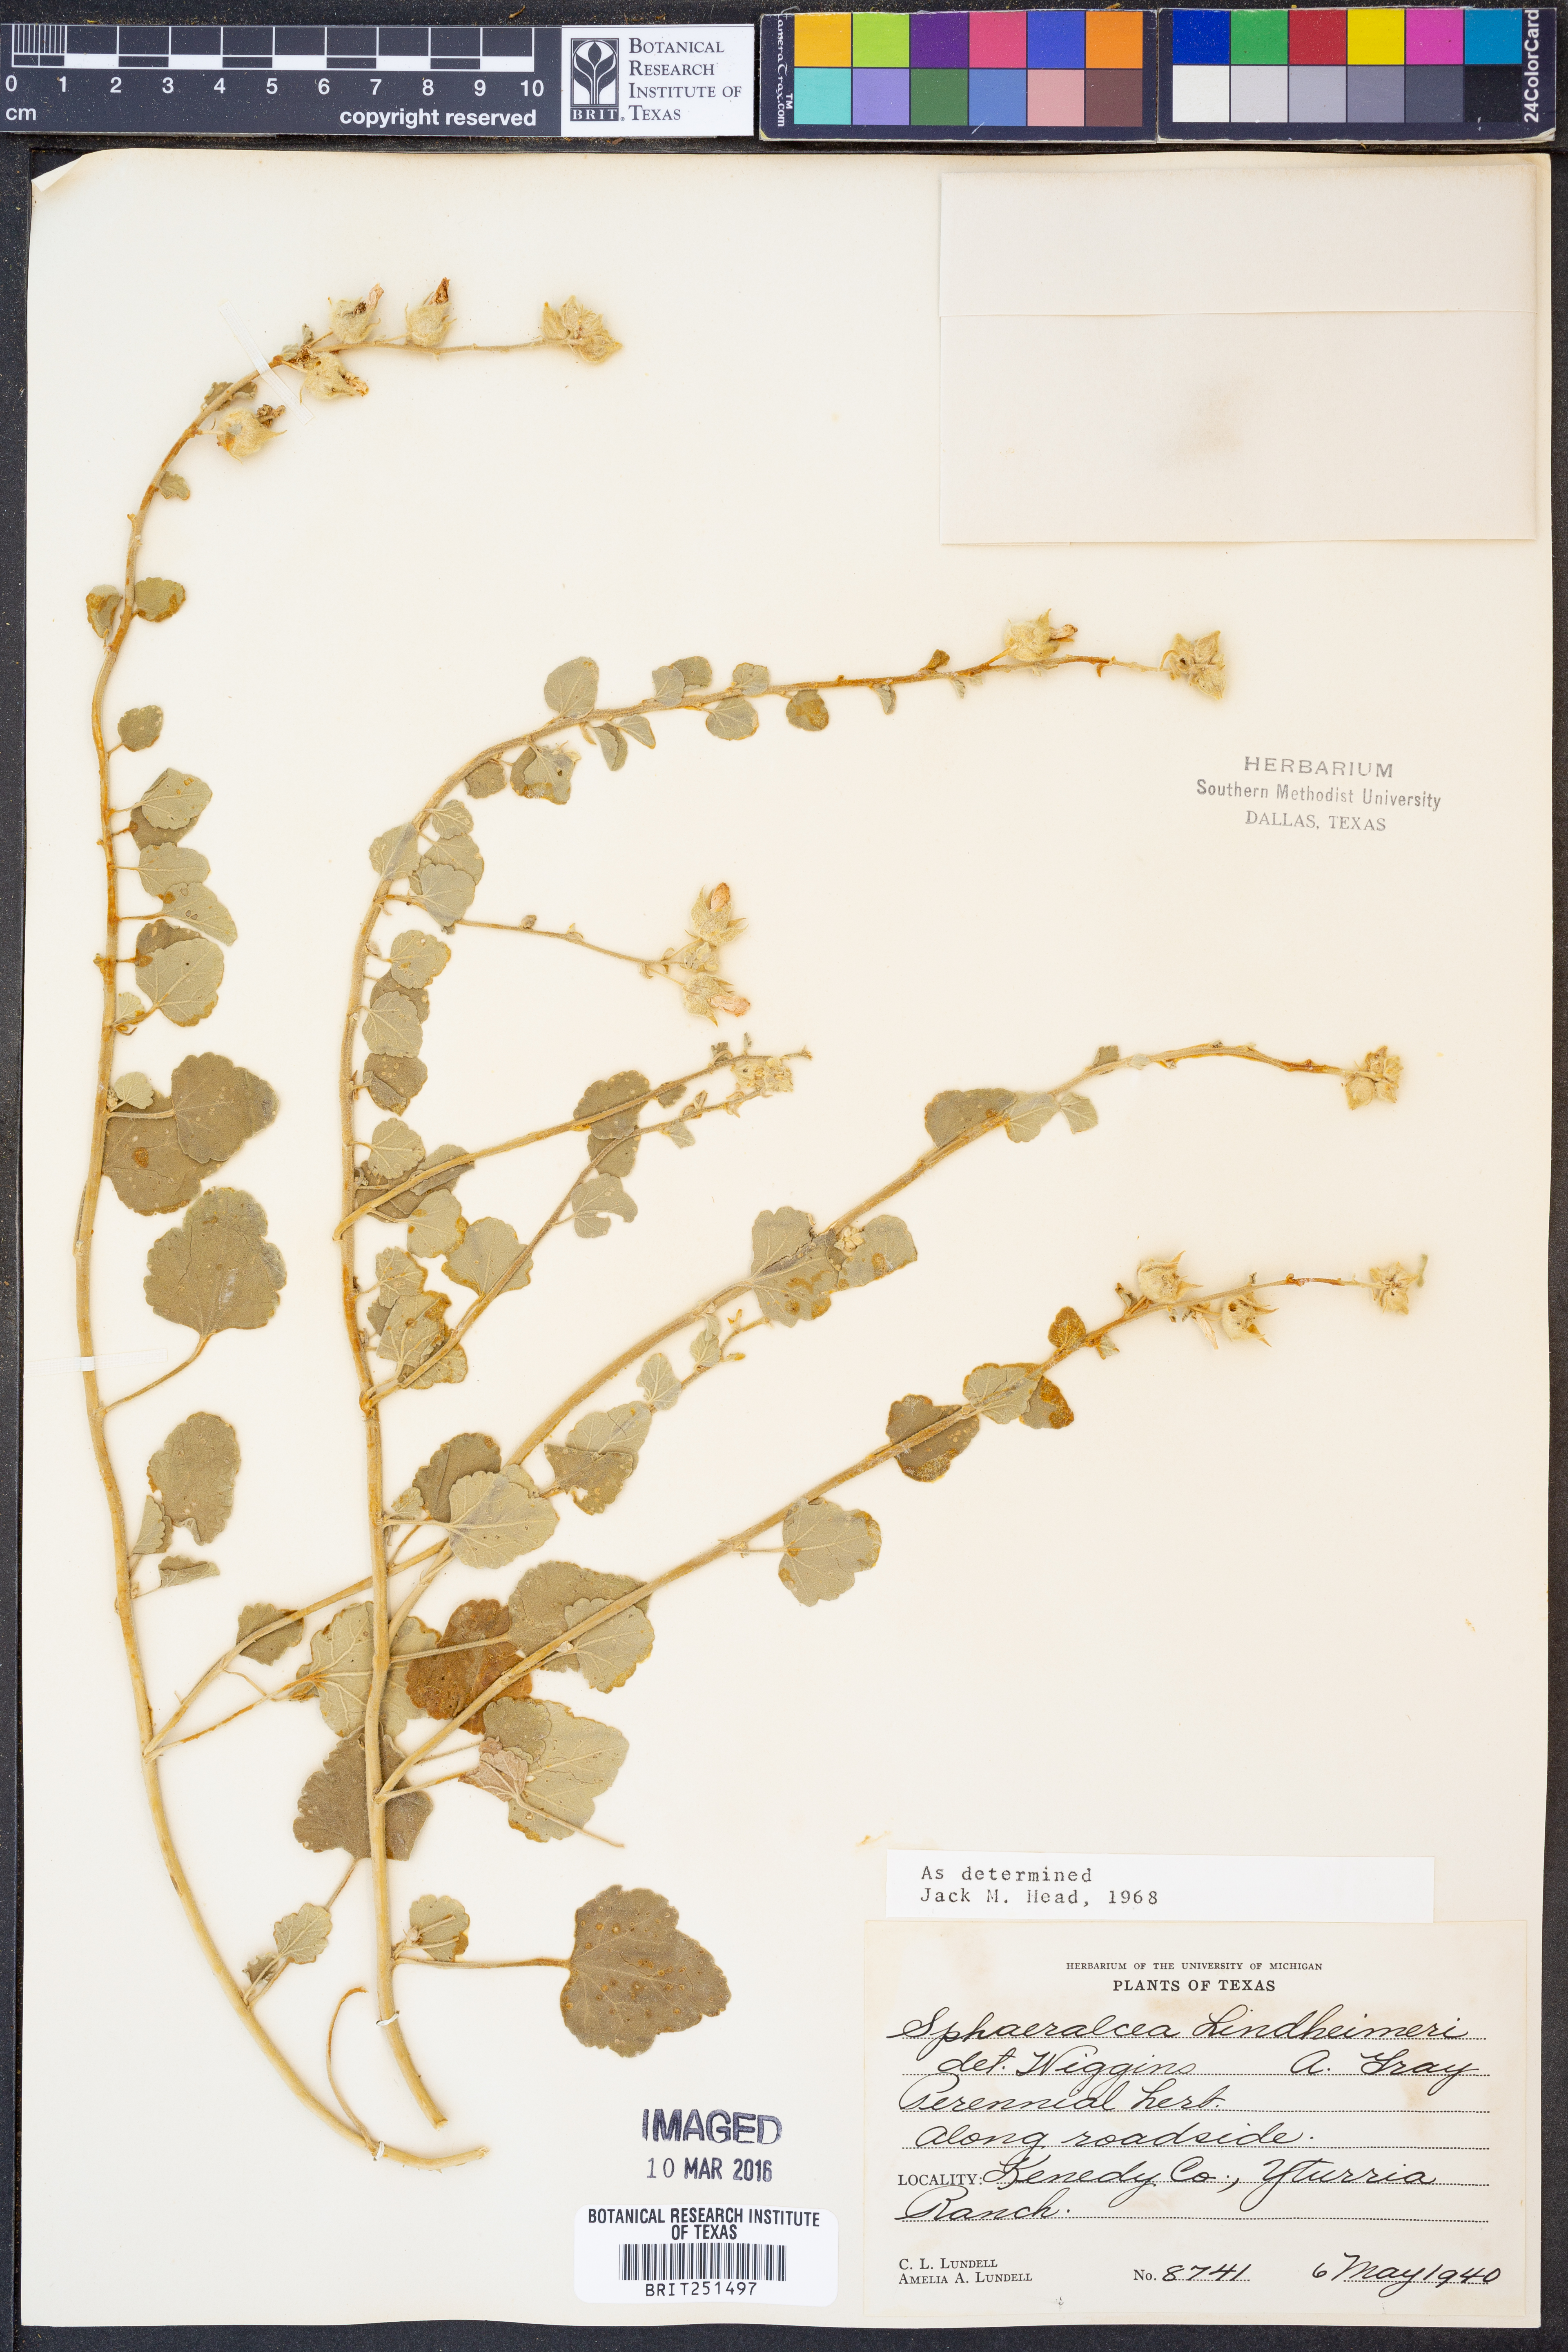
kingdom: Plantae
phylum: Tracheophyta
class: Magnoliopsida
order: Malvales
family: Malvaceae
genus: Sphaeralcea
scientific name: Sphaeralcea lindheimeri
